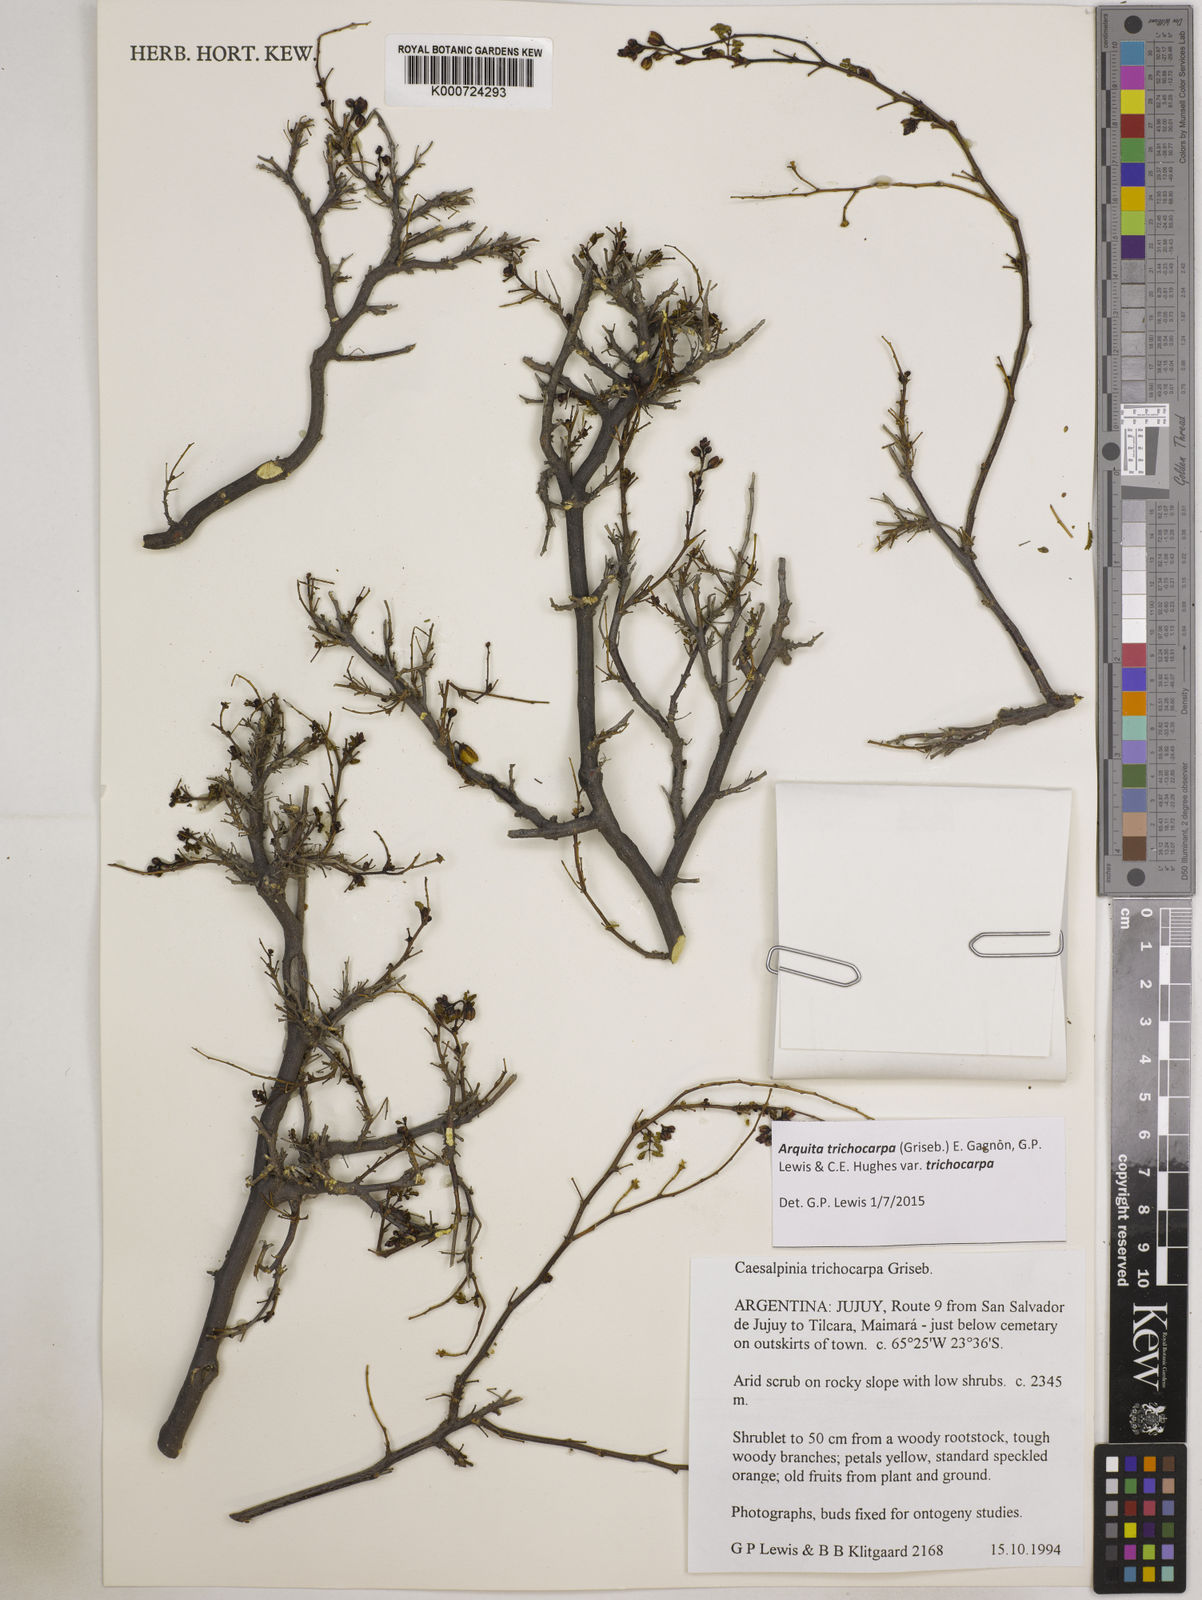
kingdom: Plantae
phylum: Tracheophyta
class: Magnoliopsida
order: Fabales
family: Fabaceae
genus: Arquita
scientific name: Arquita trichocarpa
